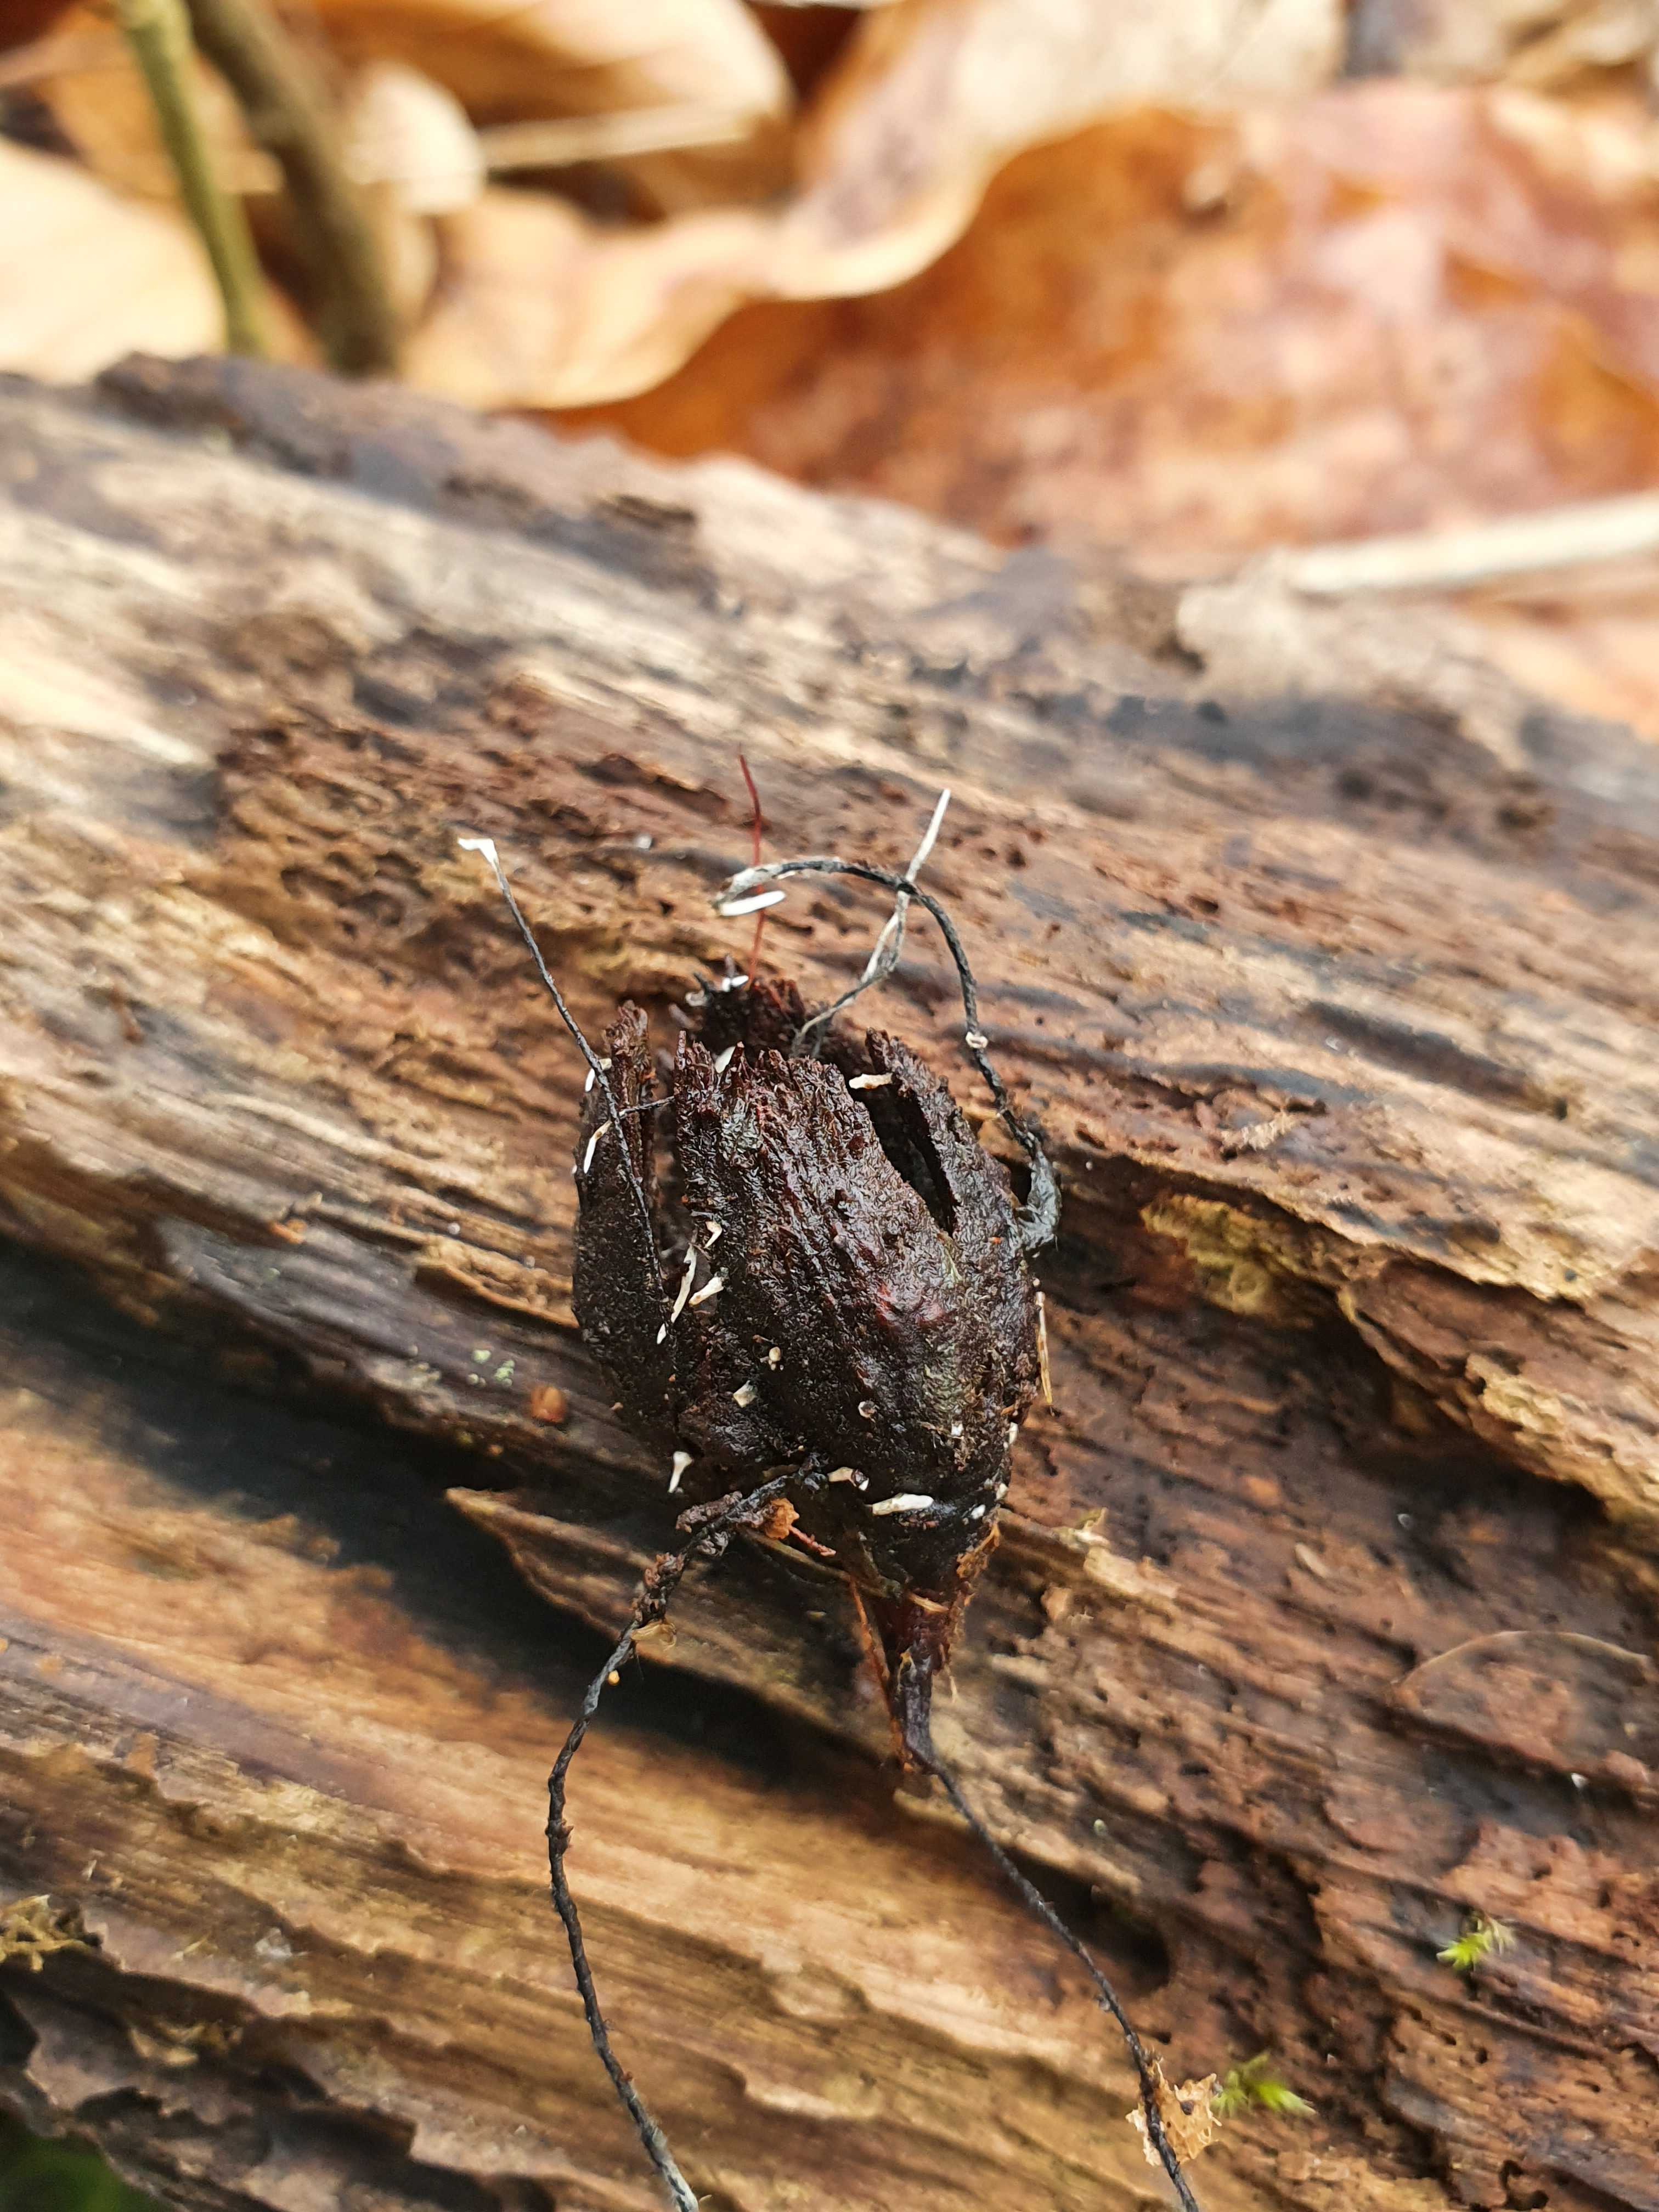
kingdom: Fungi
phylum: Ascomycota
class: Sordariomycetes
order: Xylariales
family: Xylariaceae
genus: Xylaria
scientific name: Xylaria carpophila
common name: bogskål-stødsvamp
